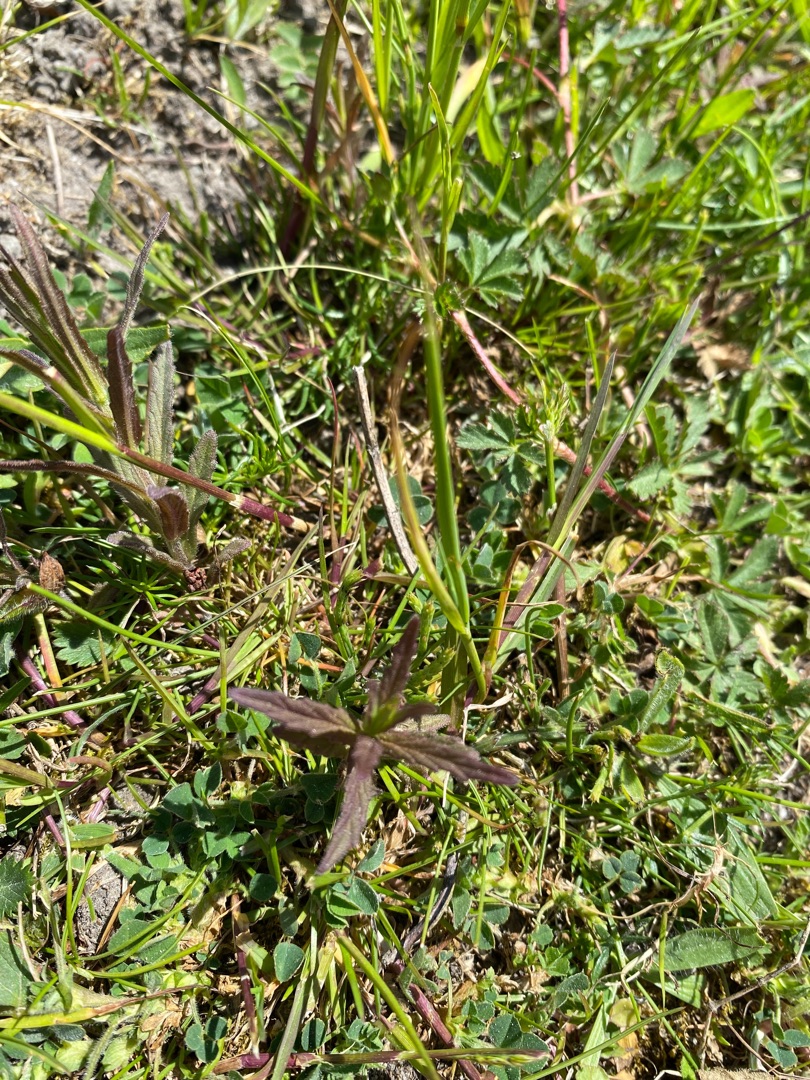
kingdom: Plantae
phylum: Tracheophyta
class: Magnoliopsida
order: Lamiales
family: Orobanchaceae
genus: Rhinanthus
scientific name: Rhinanthus minor
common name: Liden skjaller
